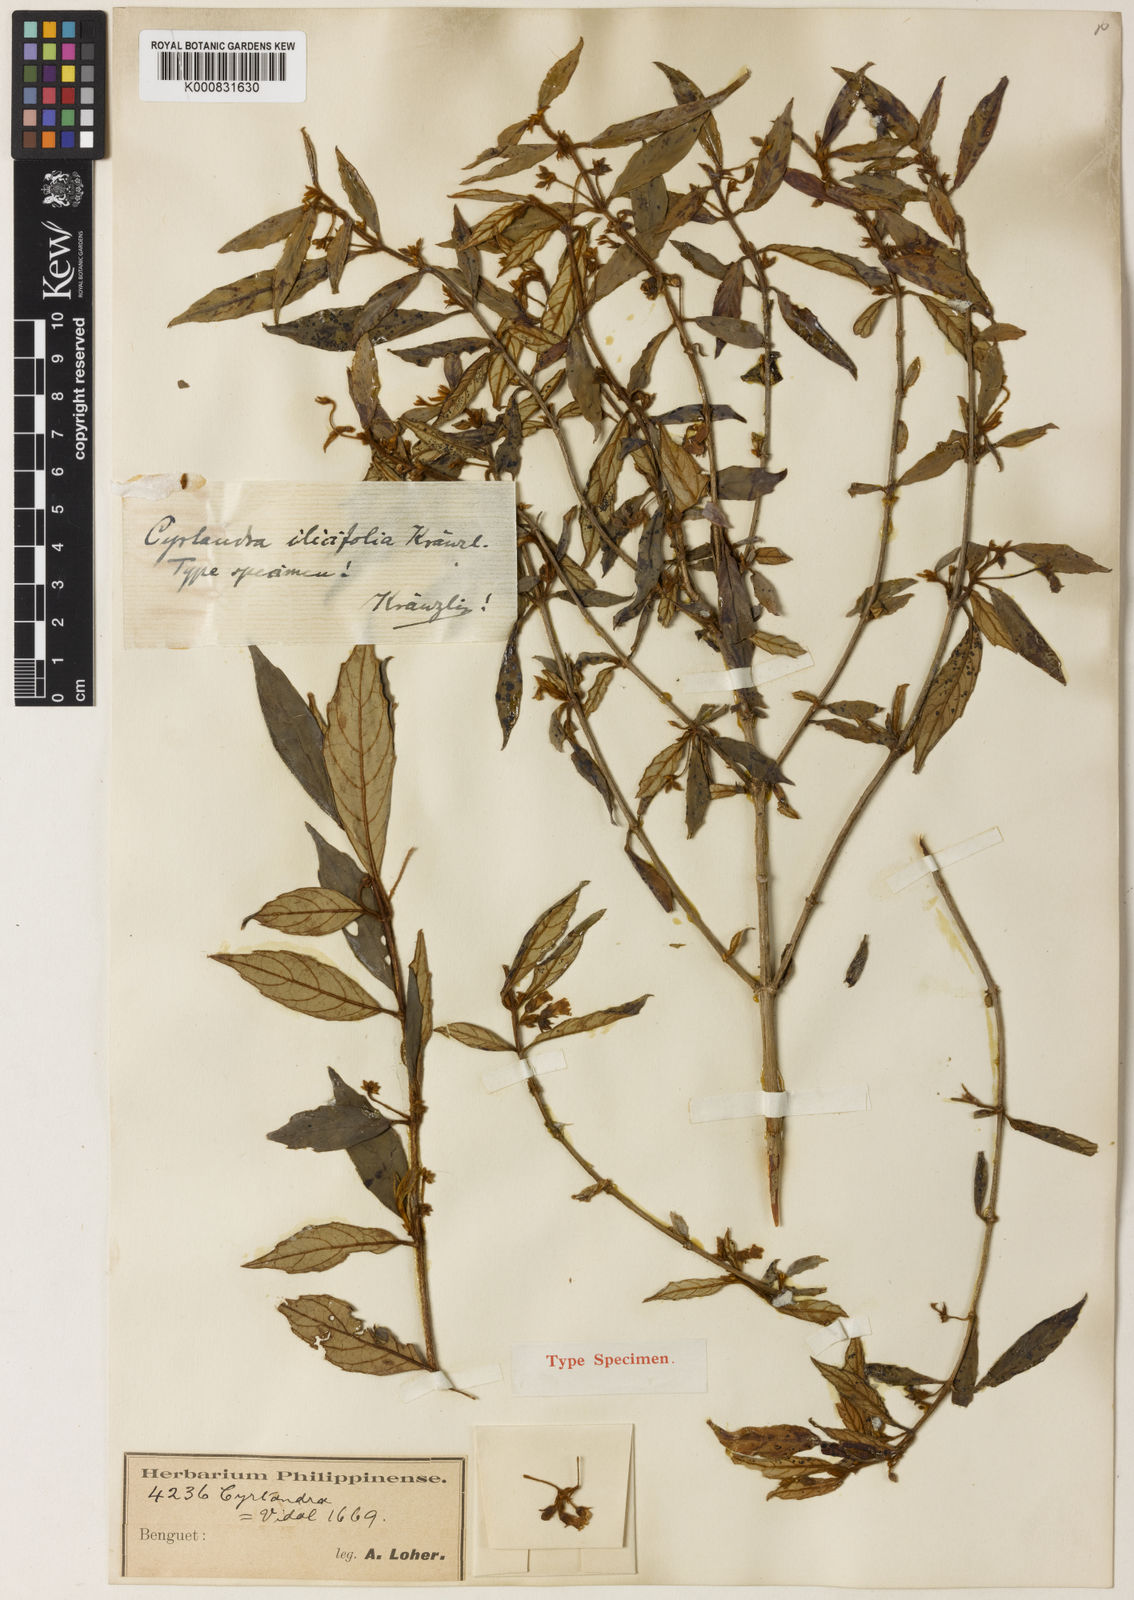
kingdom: Plantae
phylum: Tracheophyta
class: Magnoliopsida
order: Lamiales
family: Gesneriaceae
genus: Cyrtandra
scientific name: Cyrtandra ilicifolia
